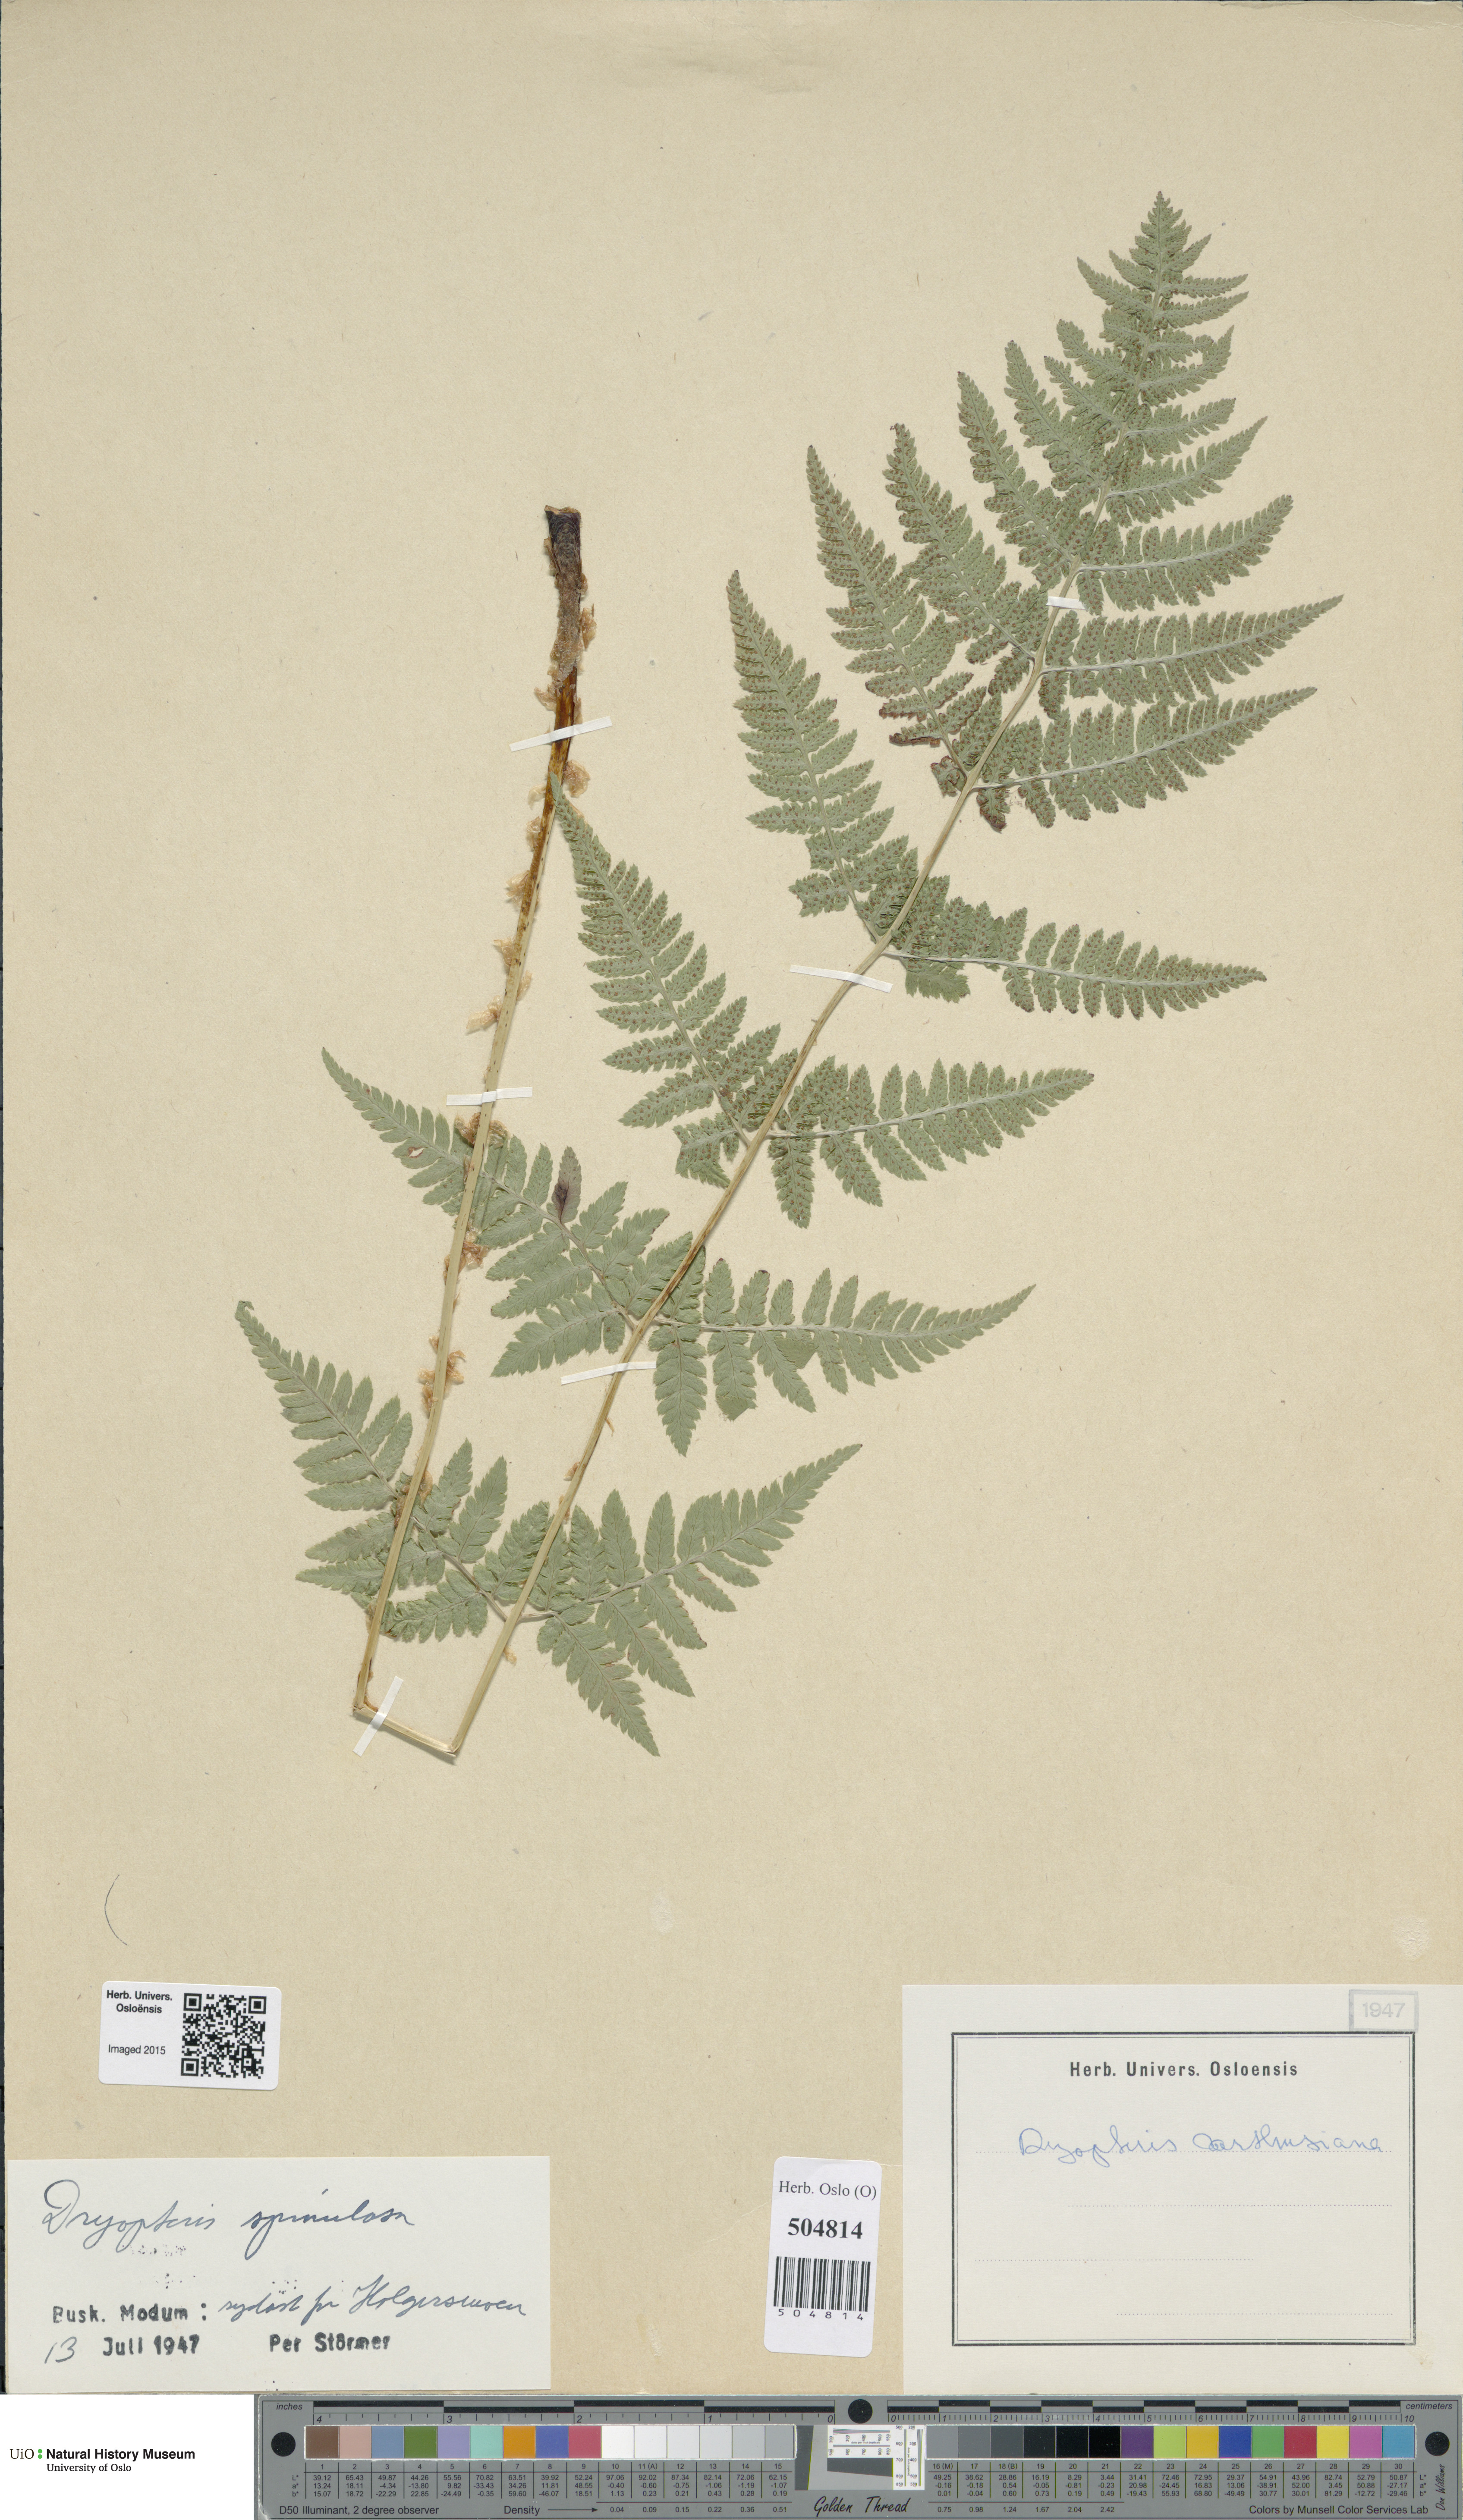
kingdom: Plantae
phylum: Tracheophyta
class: Polypodiopsida
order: Polypodiales
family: Dryopteridaceae
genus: Dryopteris
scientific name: Dryopteris carthusiana
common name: Narrow buckler-fern
